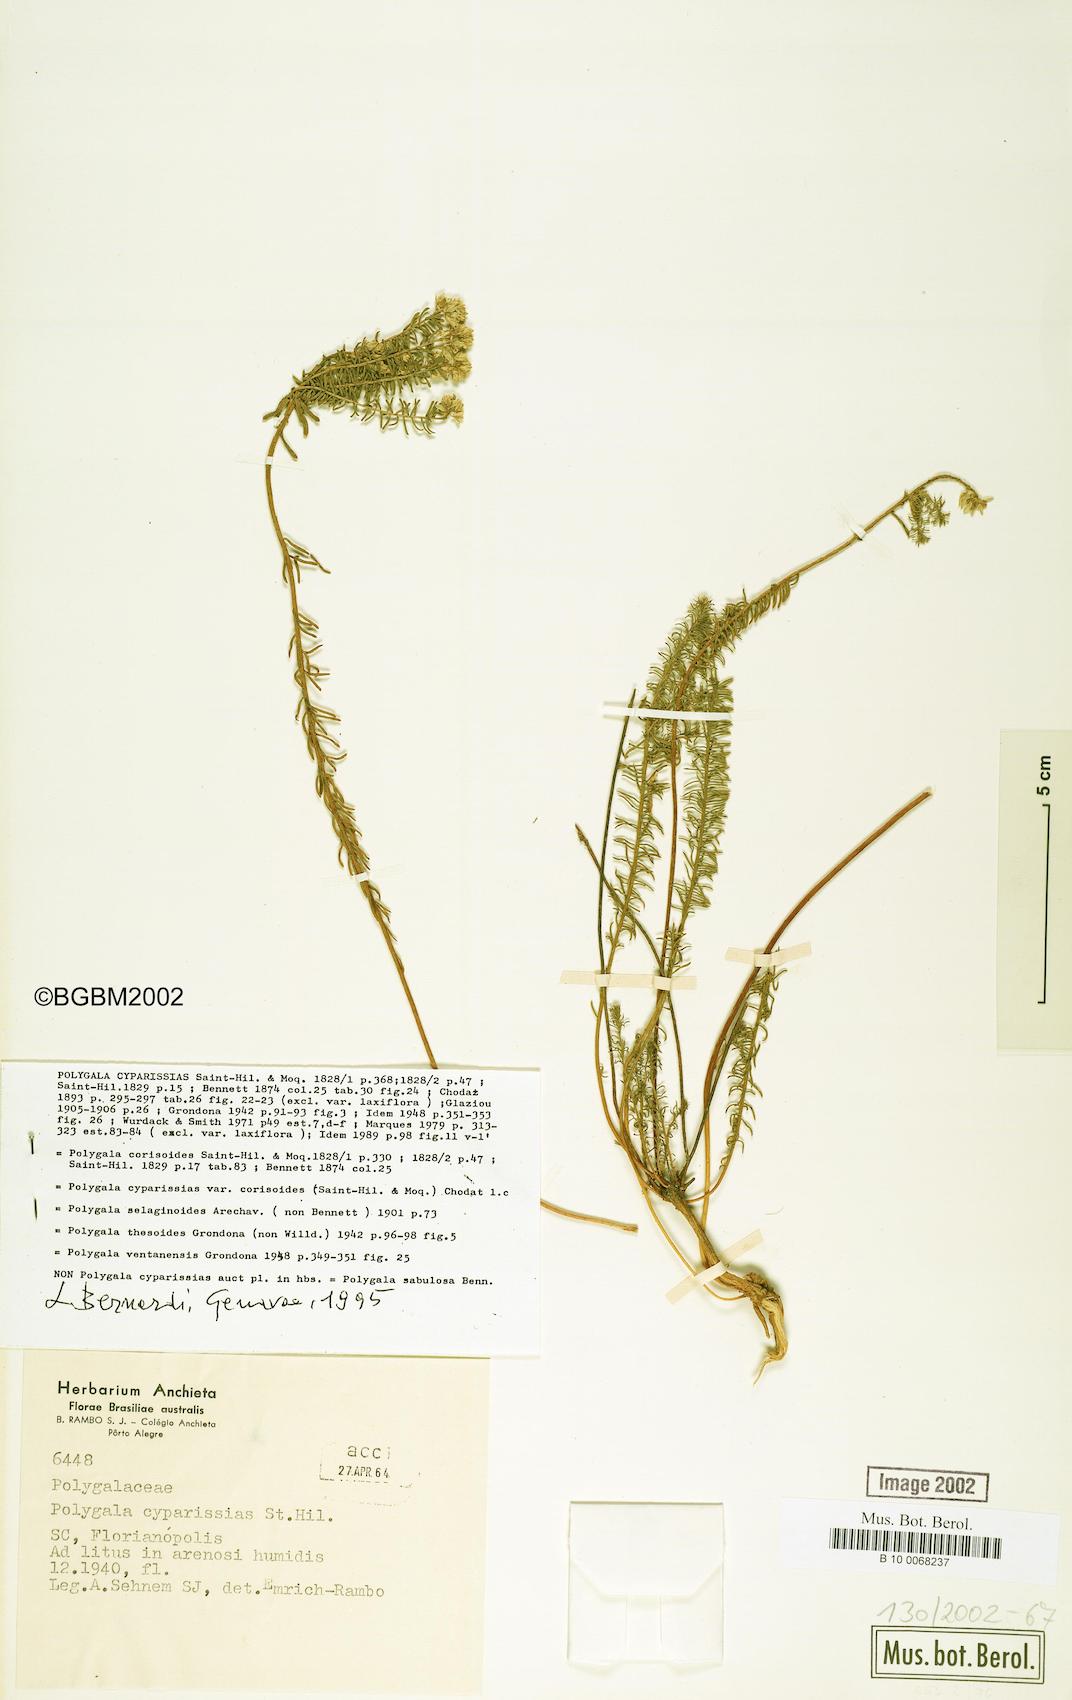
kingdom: Plantae
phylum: Tracheophyta
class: Magnoliopsida
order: Fabales
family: Polygalaceae
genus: Polygala
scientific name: Polygala cyparissias
